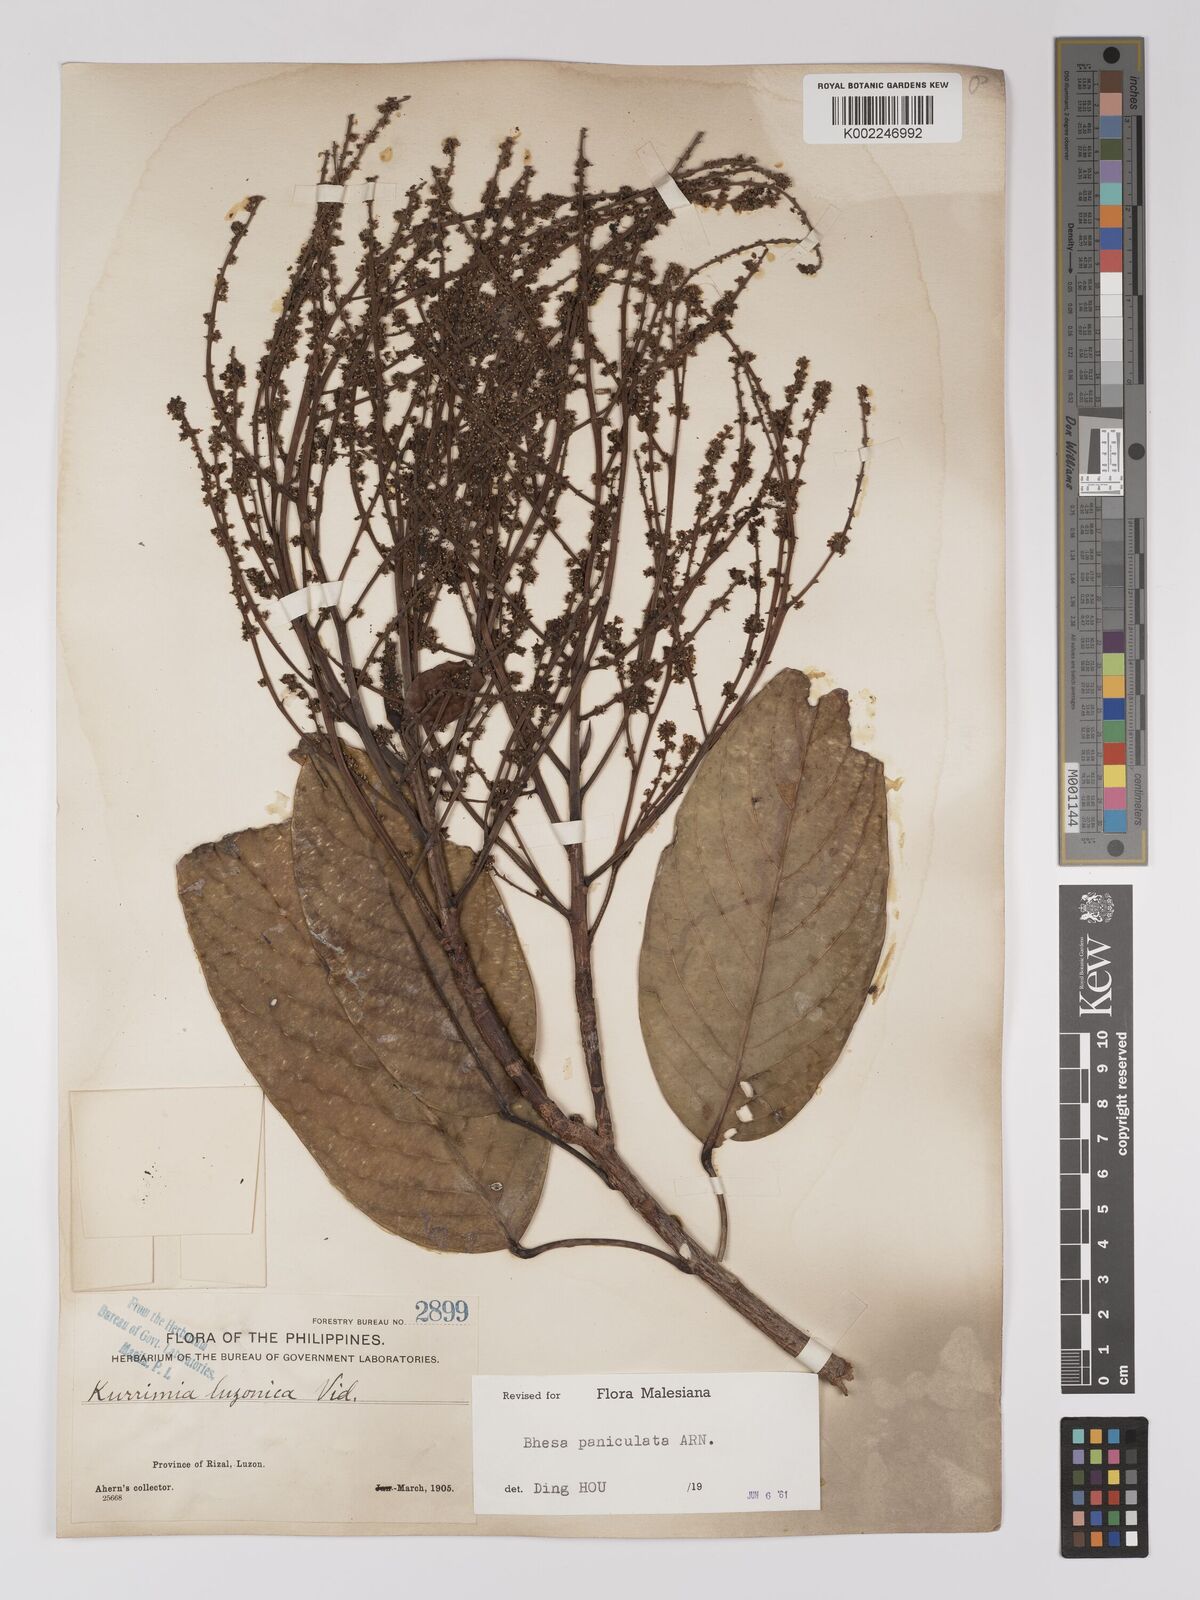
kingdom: Plantae
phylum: Tracheophyta
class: Magnoliopsida
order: Malpighiales
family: Centroplacaceae
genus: Bhesa
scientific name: Bhesa paniculata
